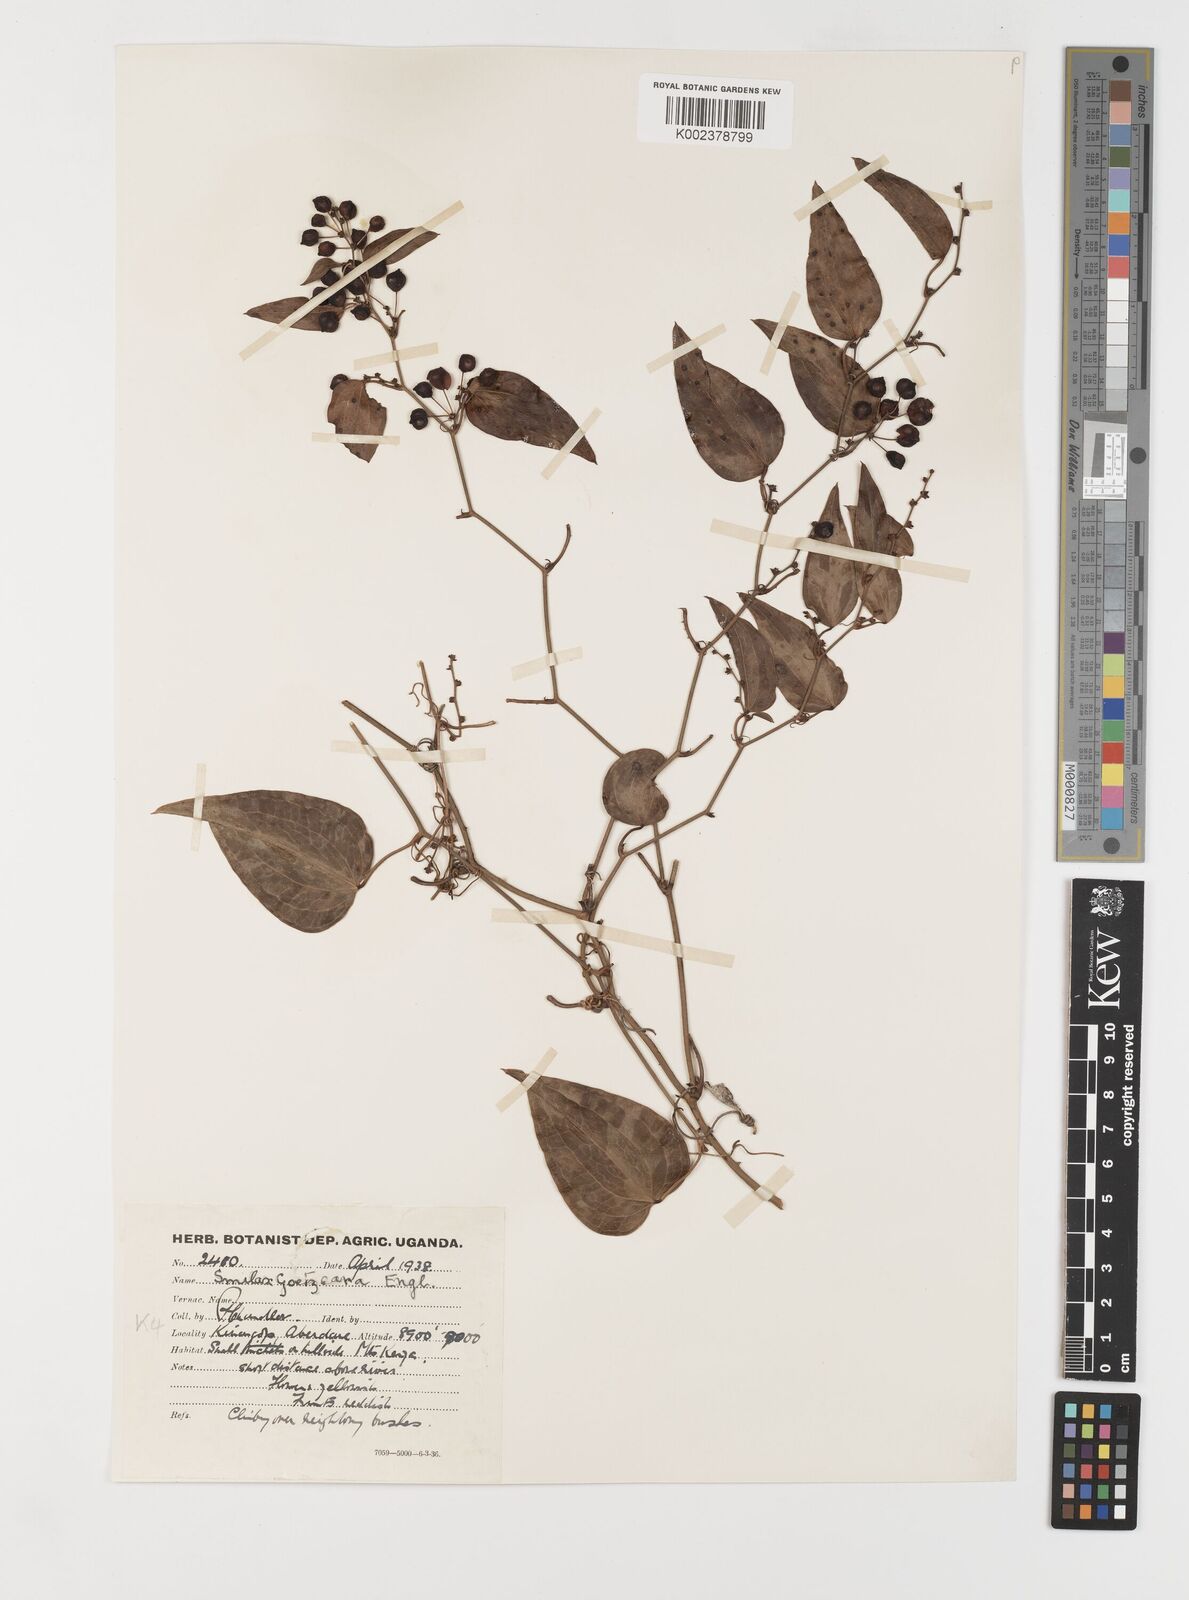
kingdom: Plantae
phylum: Tracheophyta
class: Liliopsida
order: Liliales
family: Smilacaceae
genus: Smilax
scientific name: Smilax
